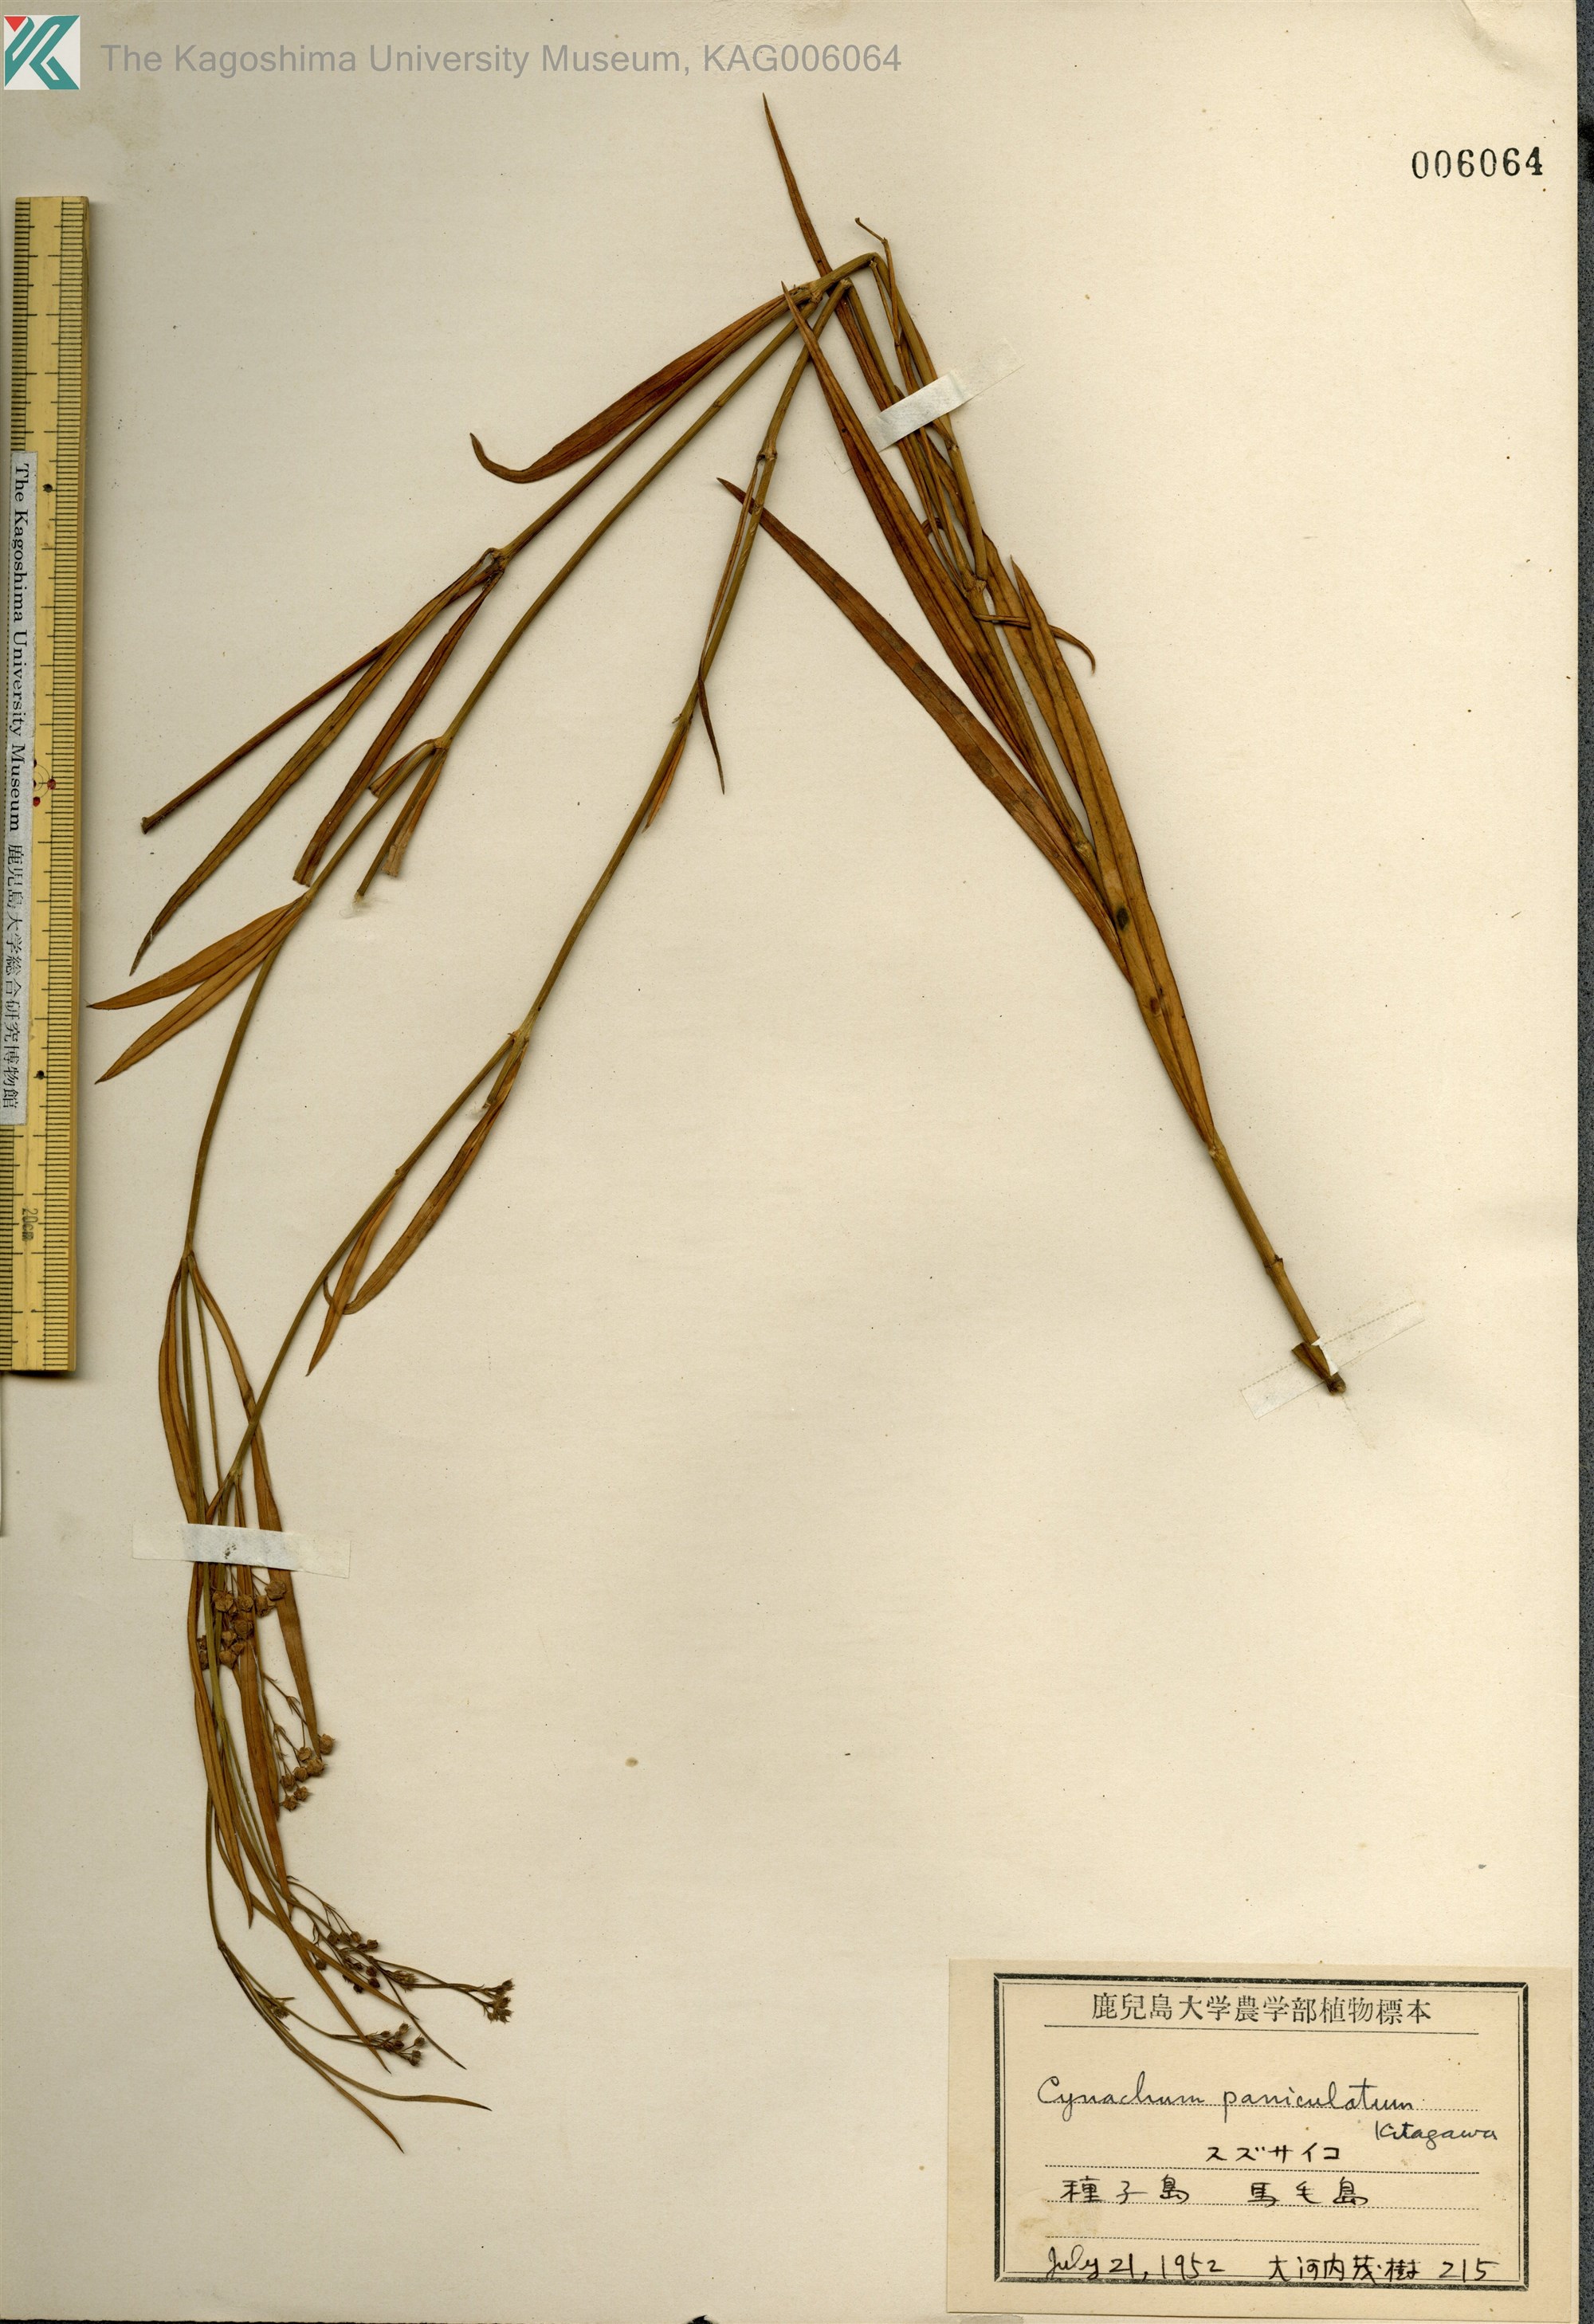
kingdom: Plantae
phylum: Tracheophyta
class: Magnoliopsida
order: Gentianales
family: Apocynaceae
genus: Vincetoxicum
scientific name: Vincetoxicum mukdenense
